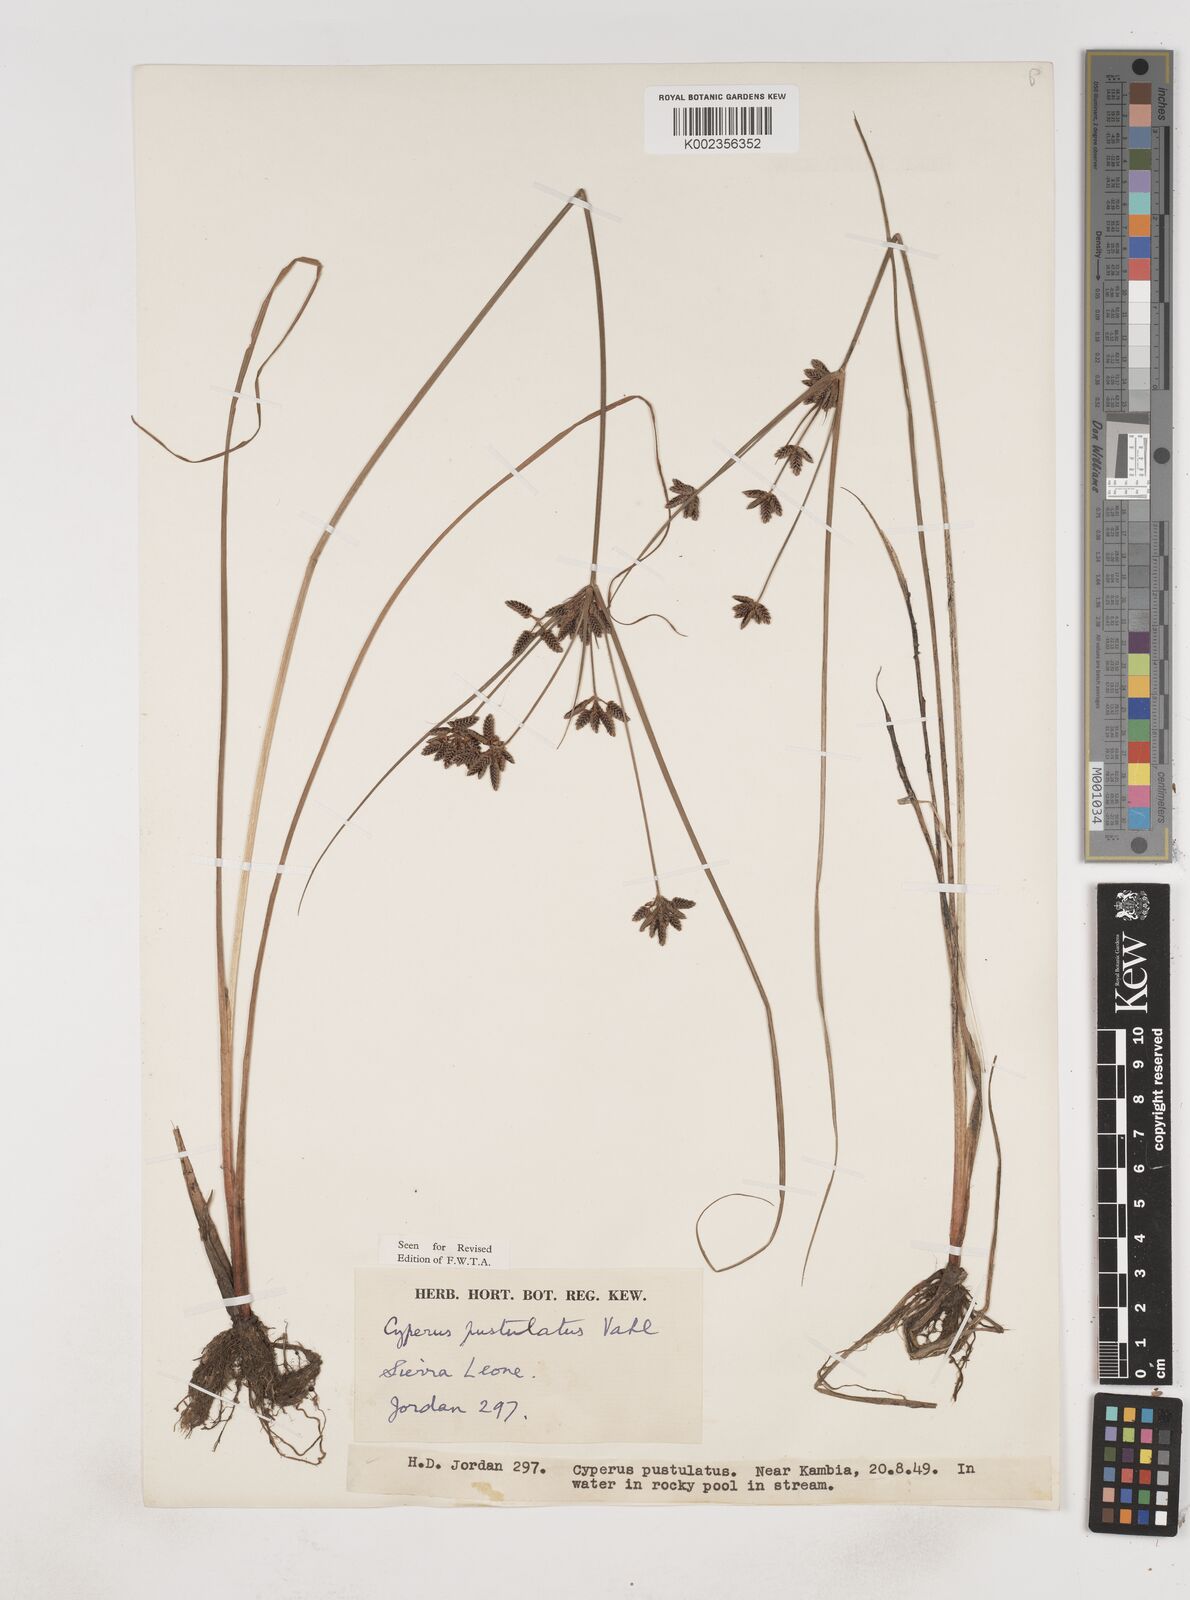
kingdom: Plantae
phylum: Tracheophyta
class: Liliopsida
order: Poales
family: Cyperaceae
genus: Cyperus
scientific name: Cyperus pustulatus
